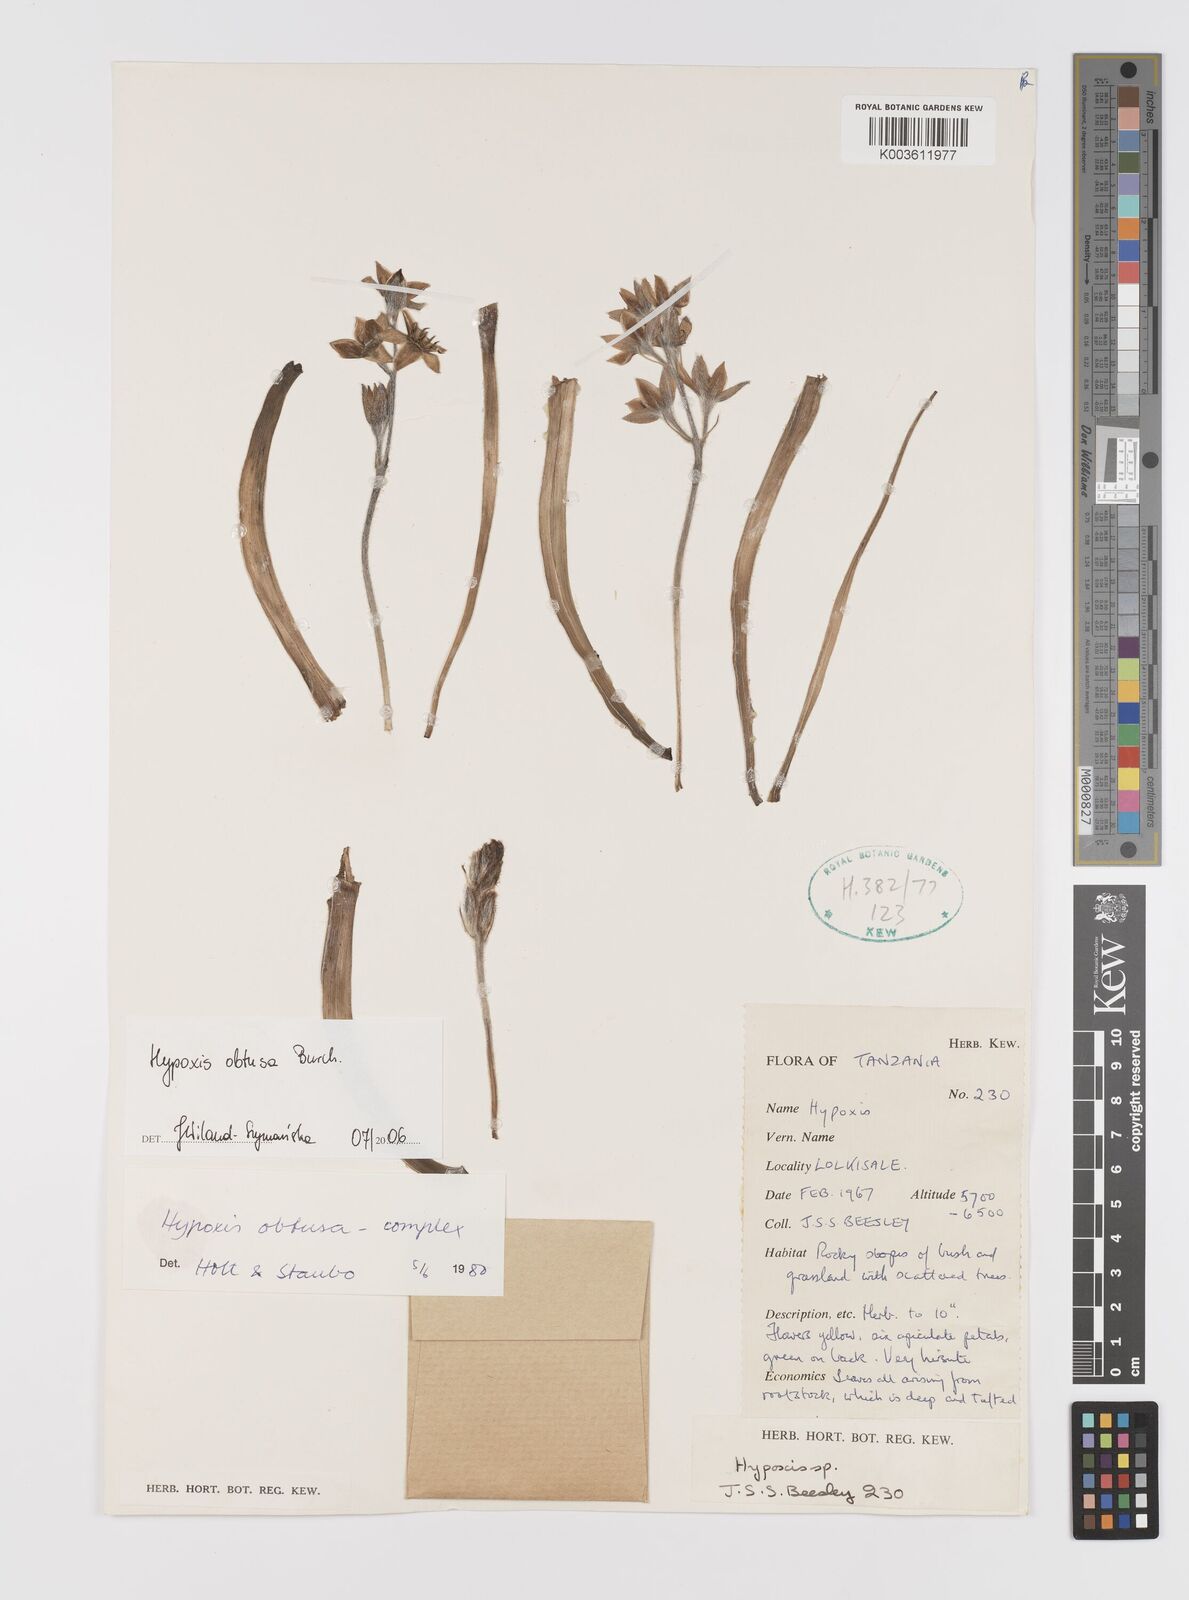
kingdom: Plantae
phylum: Tracheophyta
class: Liliopsida
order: Asparagales
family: Hypoxidaceae
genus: Hypoxis
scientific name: Hypoxis obtusa
